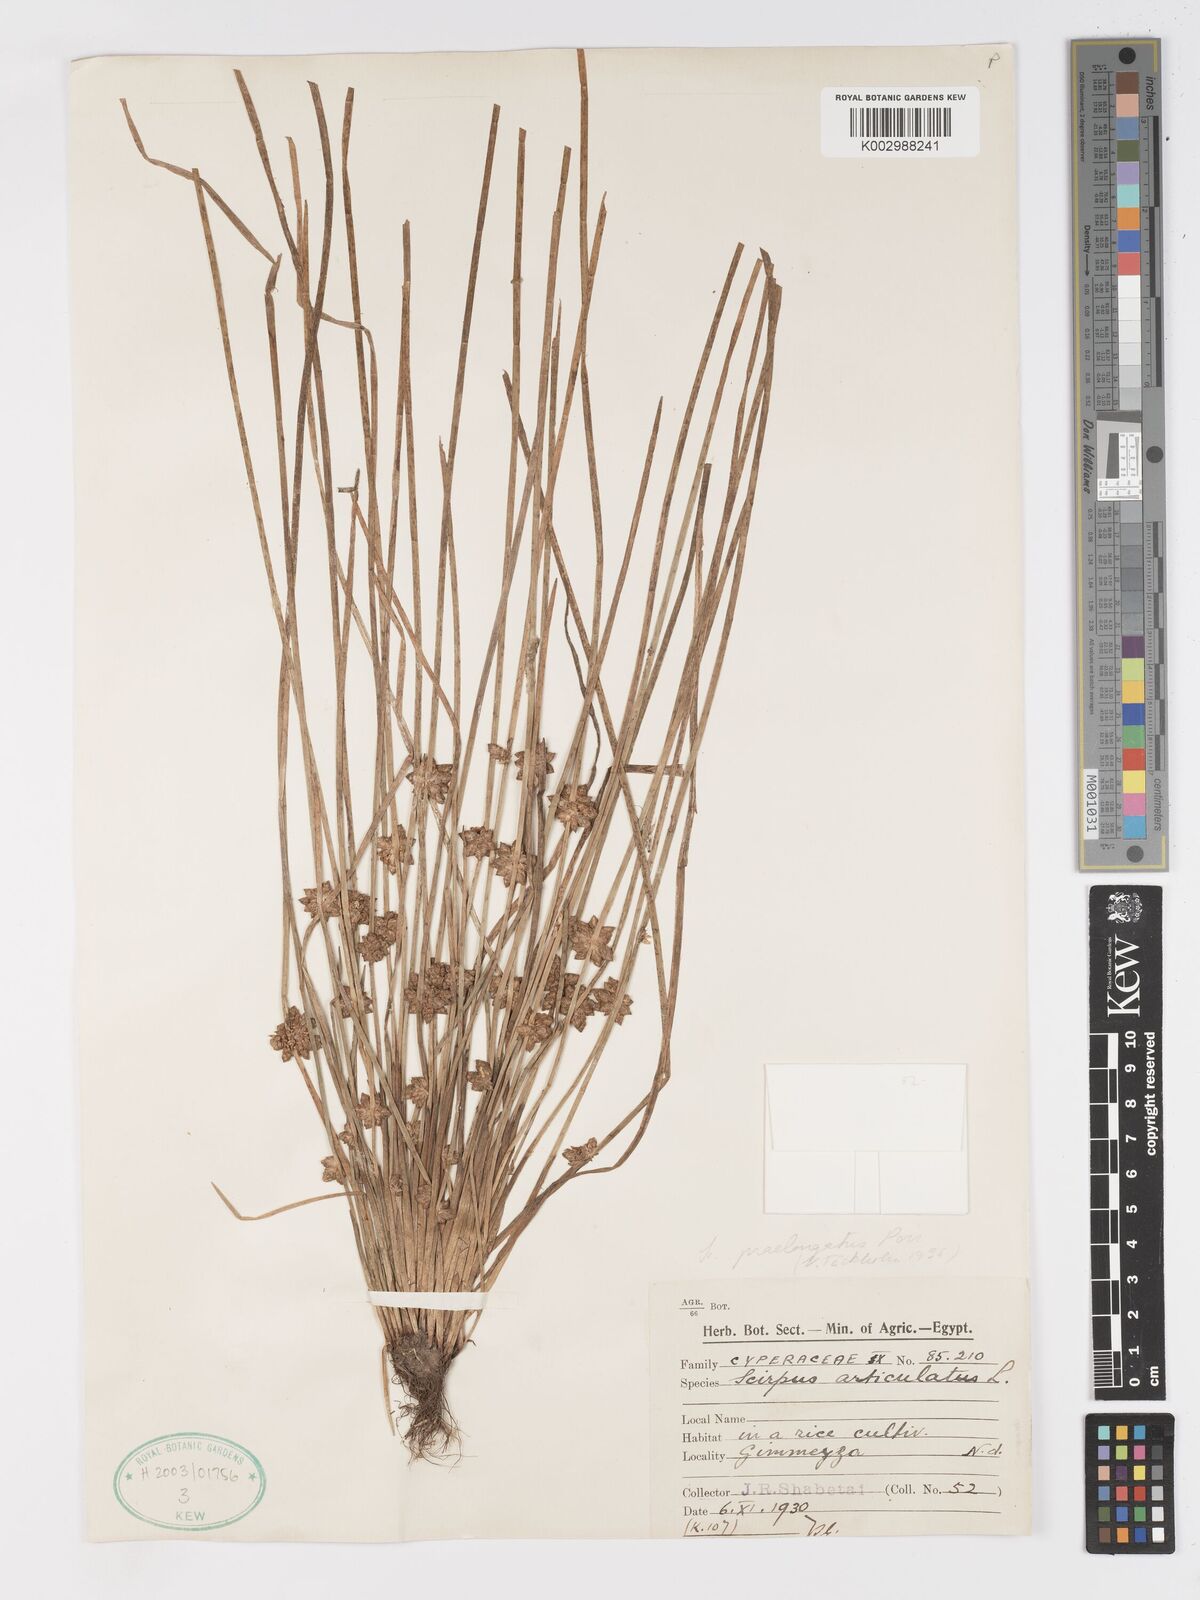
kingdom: Plantae
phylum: Tracheophyta
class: Liliopsida
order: Poales
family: Cyperaceae
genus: Schoenoplectiella
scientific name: Schoenoplectiella senegalensis
